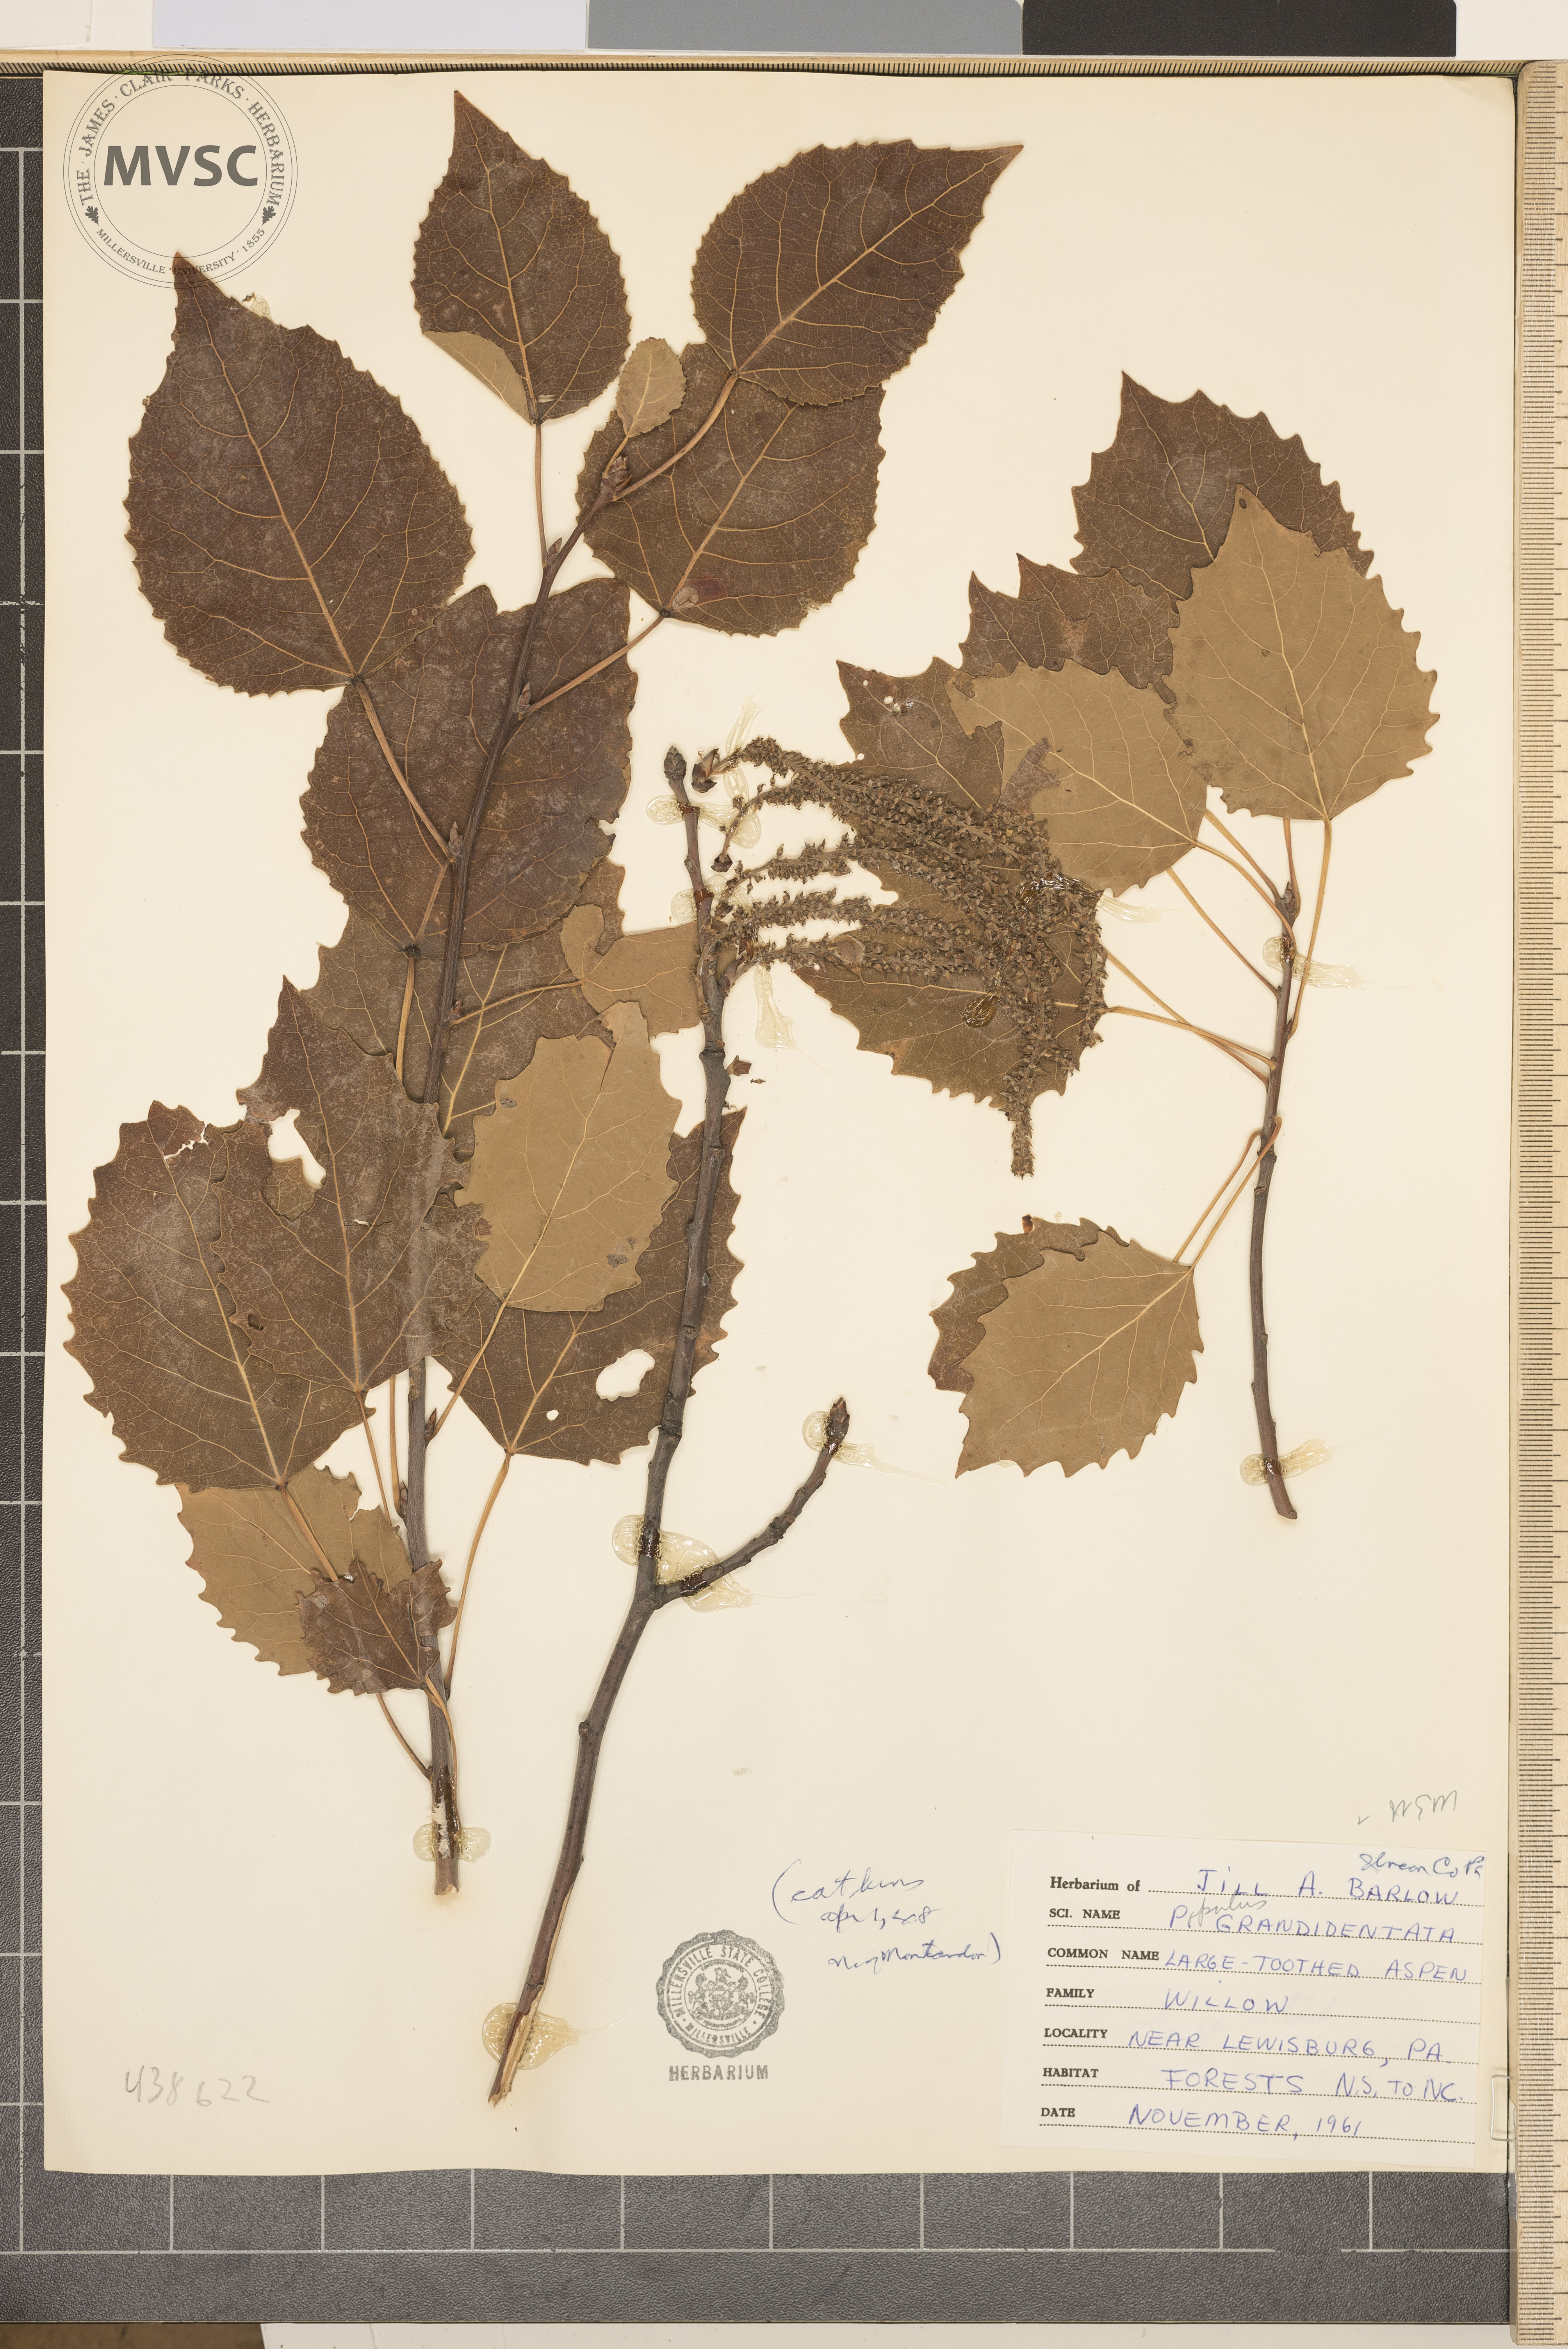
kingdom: Plantae
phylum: Tracheophyta
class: Magnoliopsida
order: Malpighiales
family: Salicaceae
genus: Populus
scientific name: Populus grandidentata
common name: Bigtooth aspen
